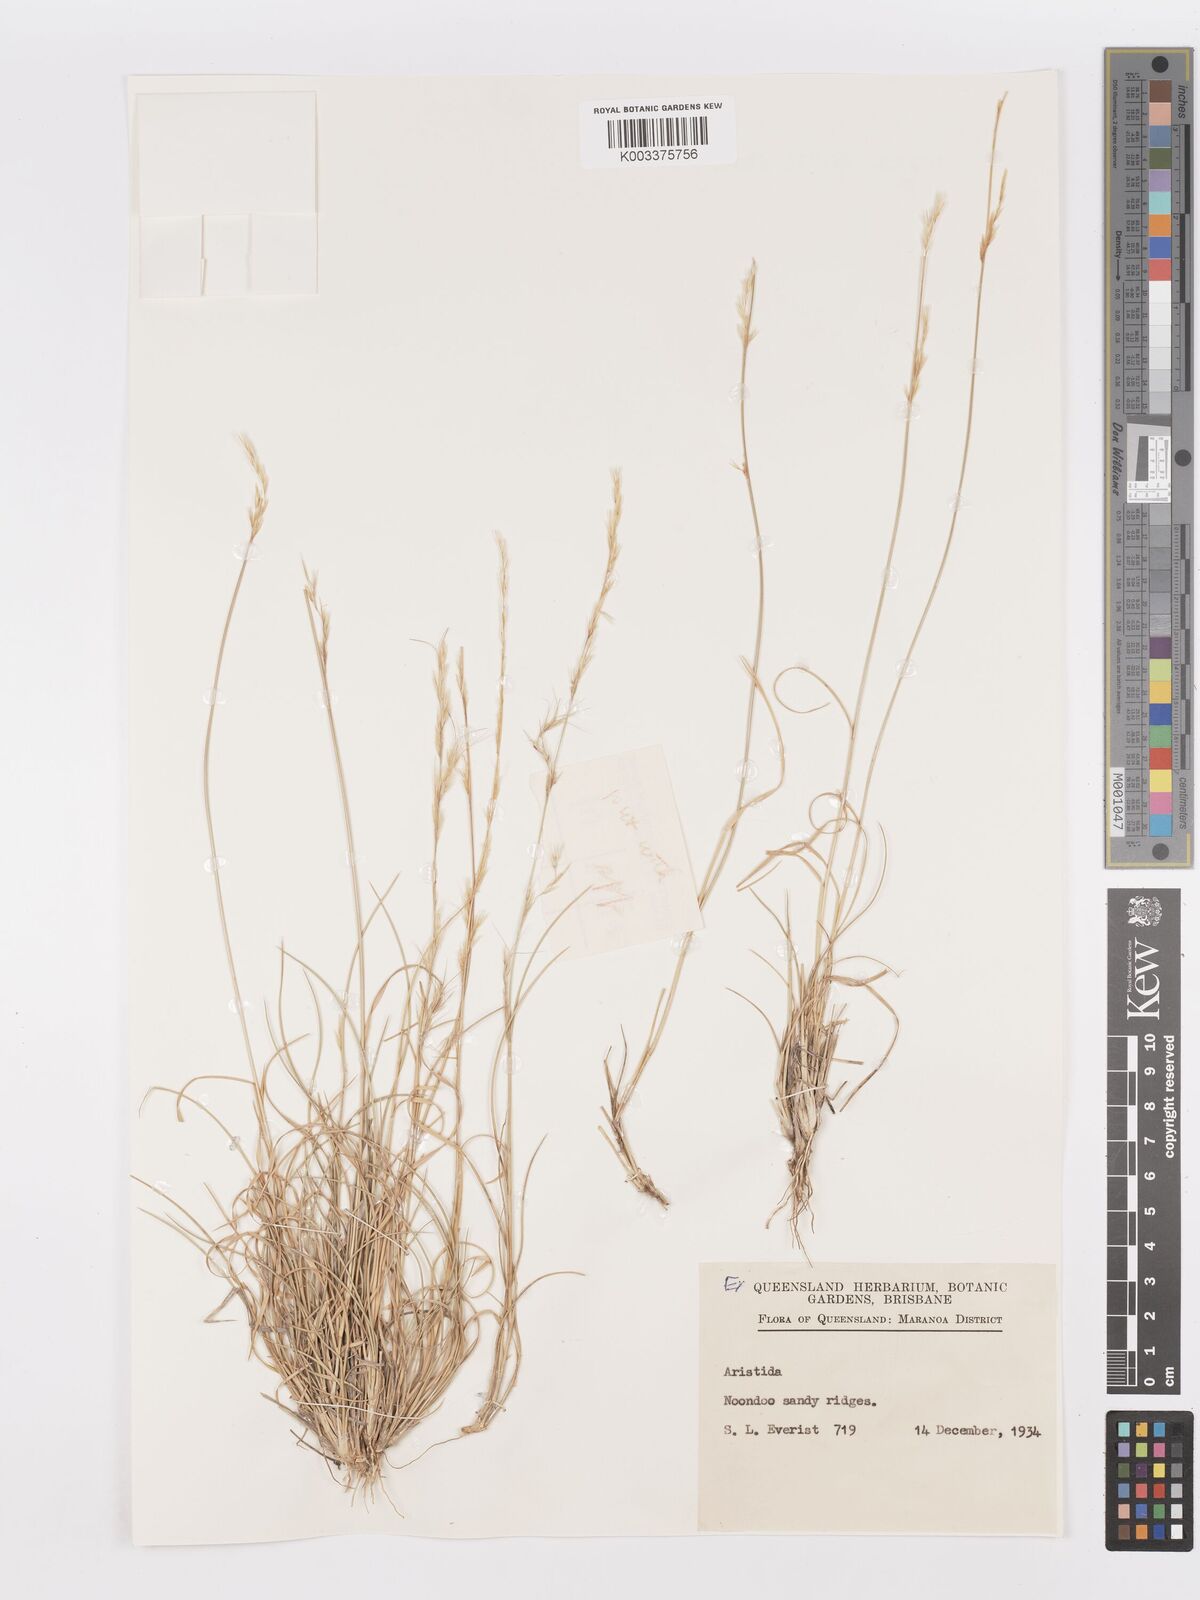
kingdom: Plantae
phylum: Tracheophyta
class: Liliopsida
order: Poales
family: Poaceae
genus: Aristida
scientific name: Aristida
